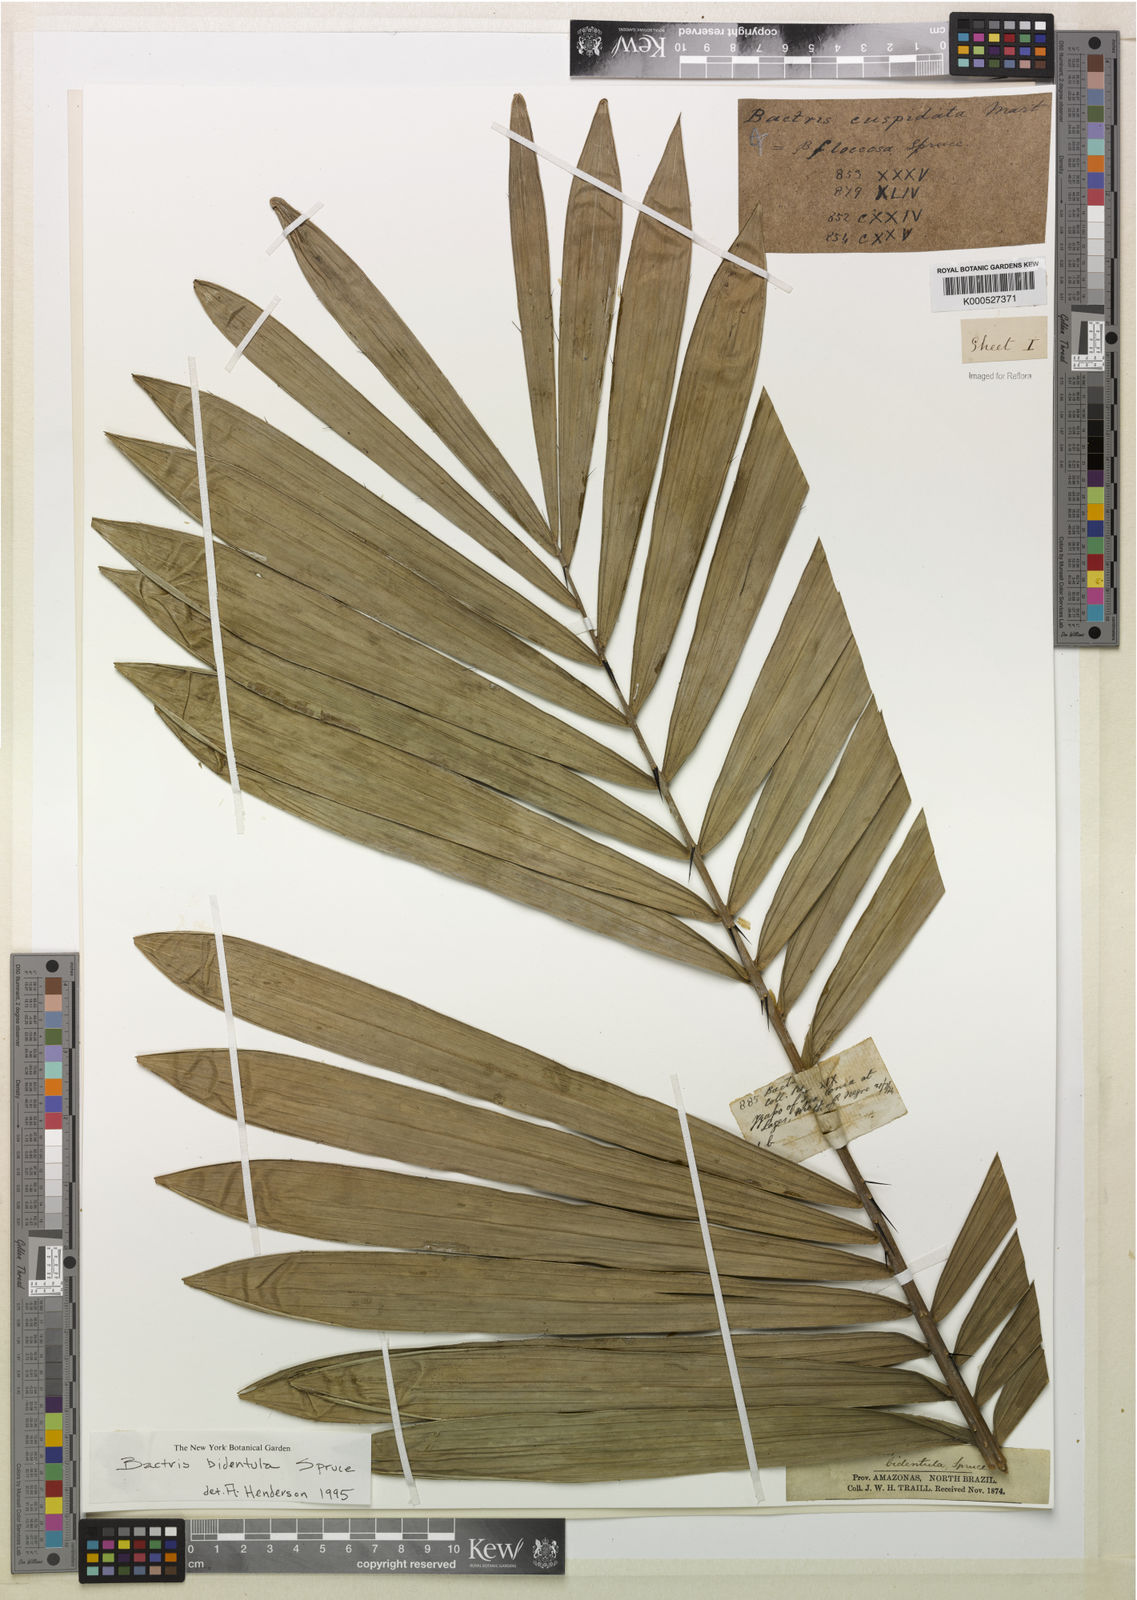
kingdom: Plantae
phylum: Tracheophyta
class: Liliopsida
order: Arecales
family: Arecaceae
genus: Bactris
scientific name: Bactris bidentula
